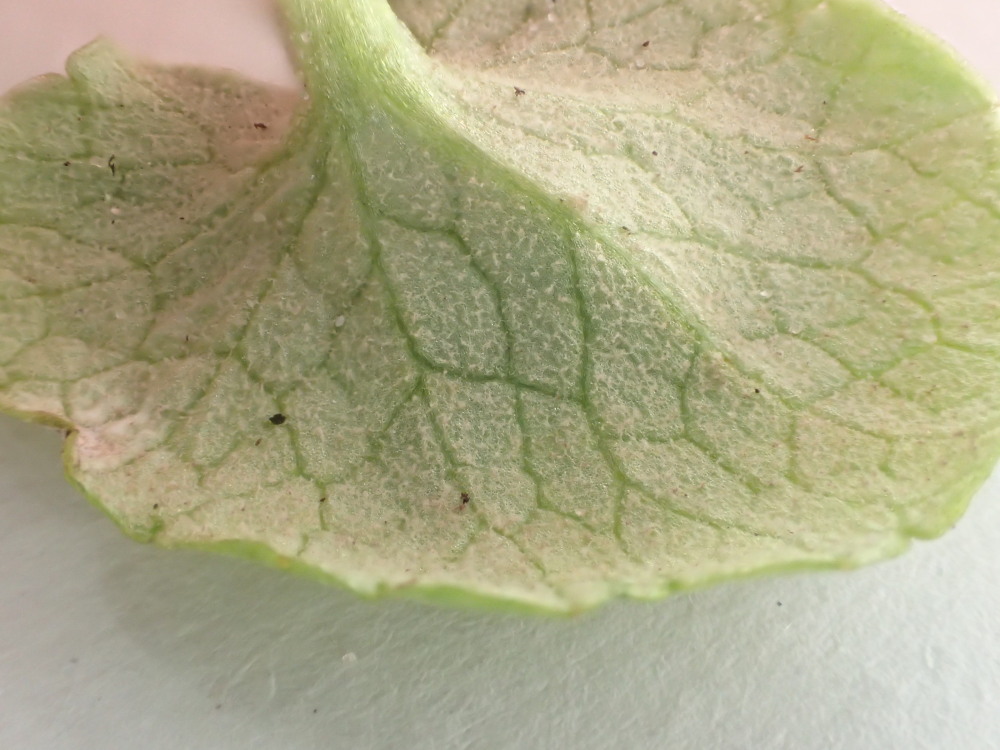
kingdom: Chromista
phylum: Oomycota
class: Peronosporea
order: Peronosporales
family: Peronosporaceae
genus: Peronospora
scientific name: Peronospora ficariae
